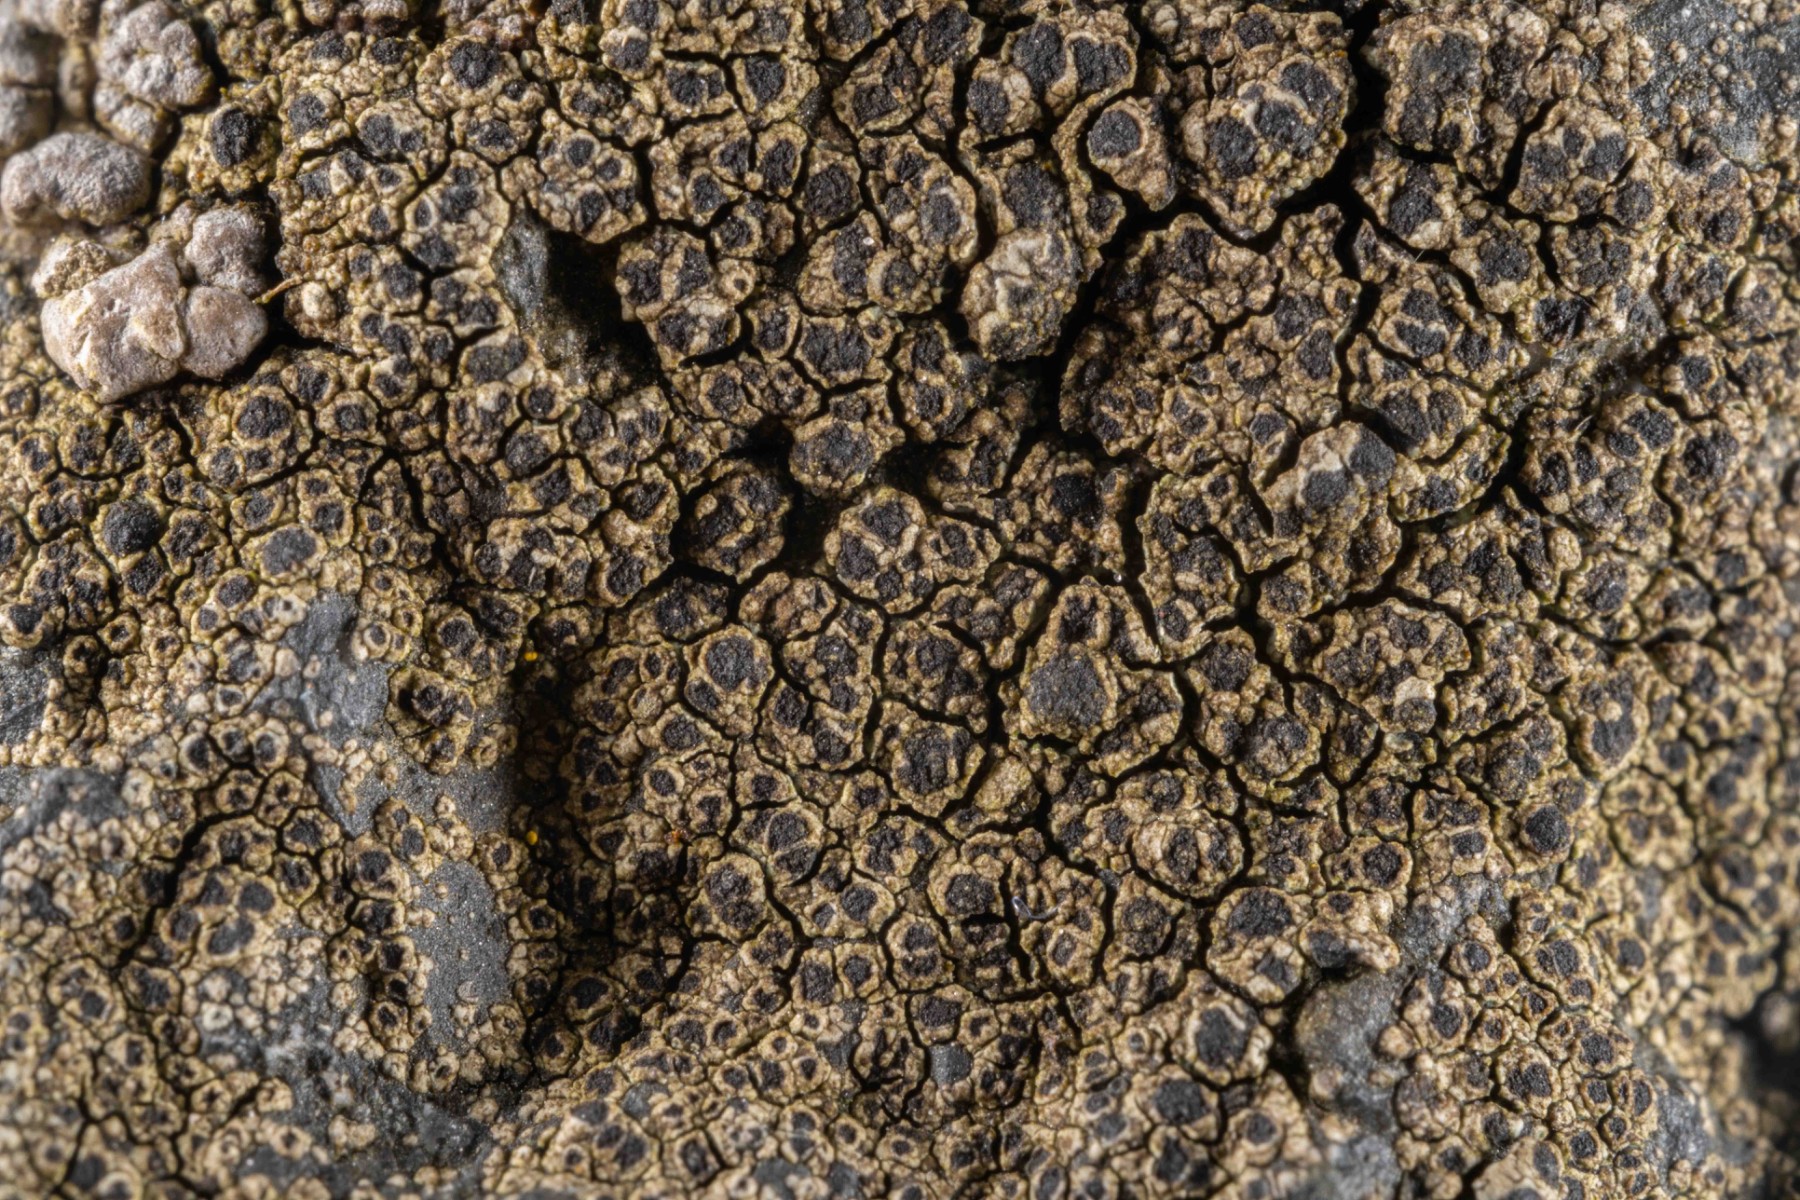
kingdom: Fungi
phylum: Ascomycota
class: Lecanoromycetes
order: Caliciales
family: Caliciaceae
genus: Buellia
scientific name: Buellia ocellata
